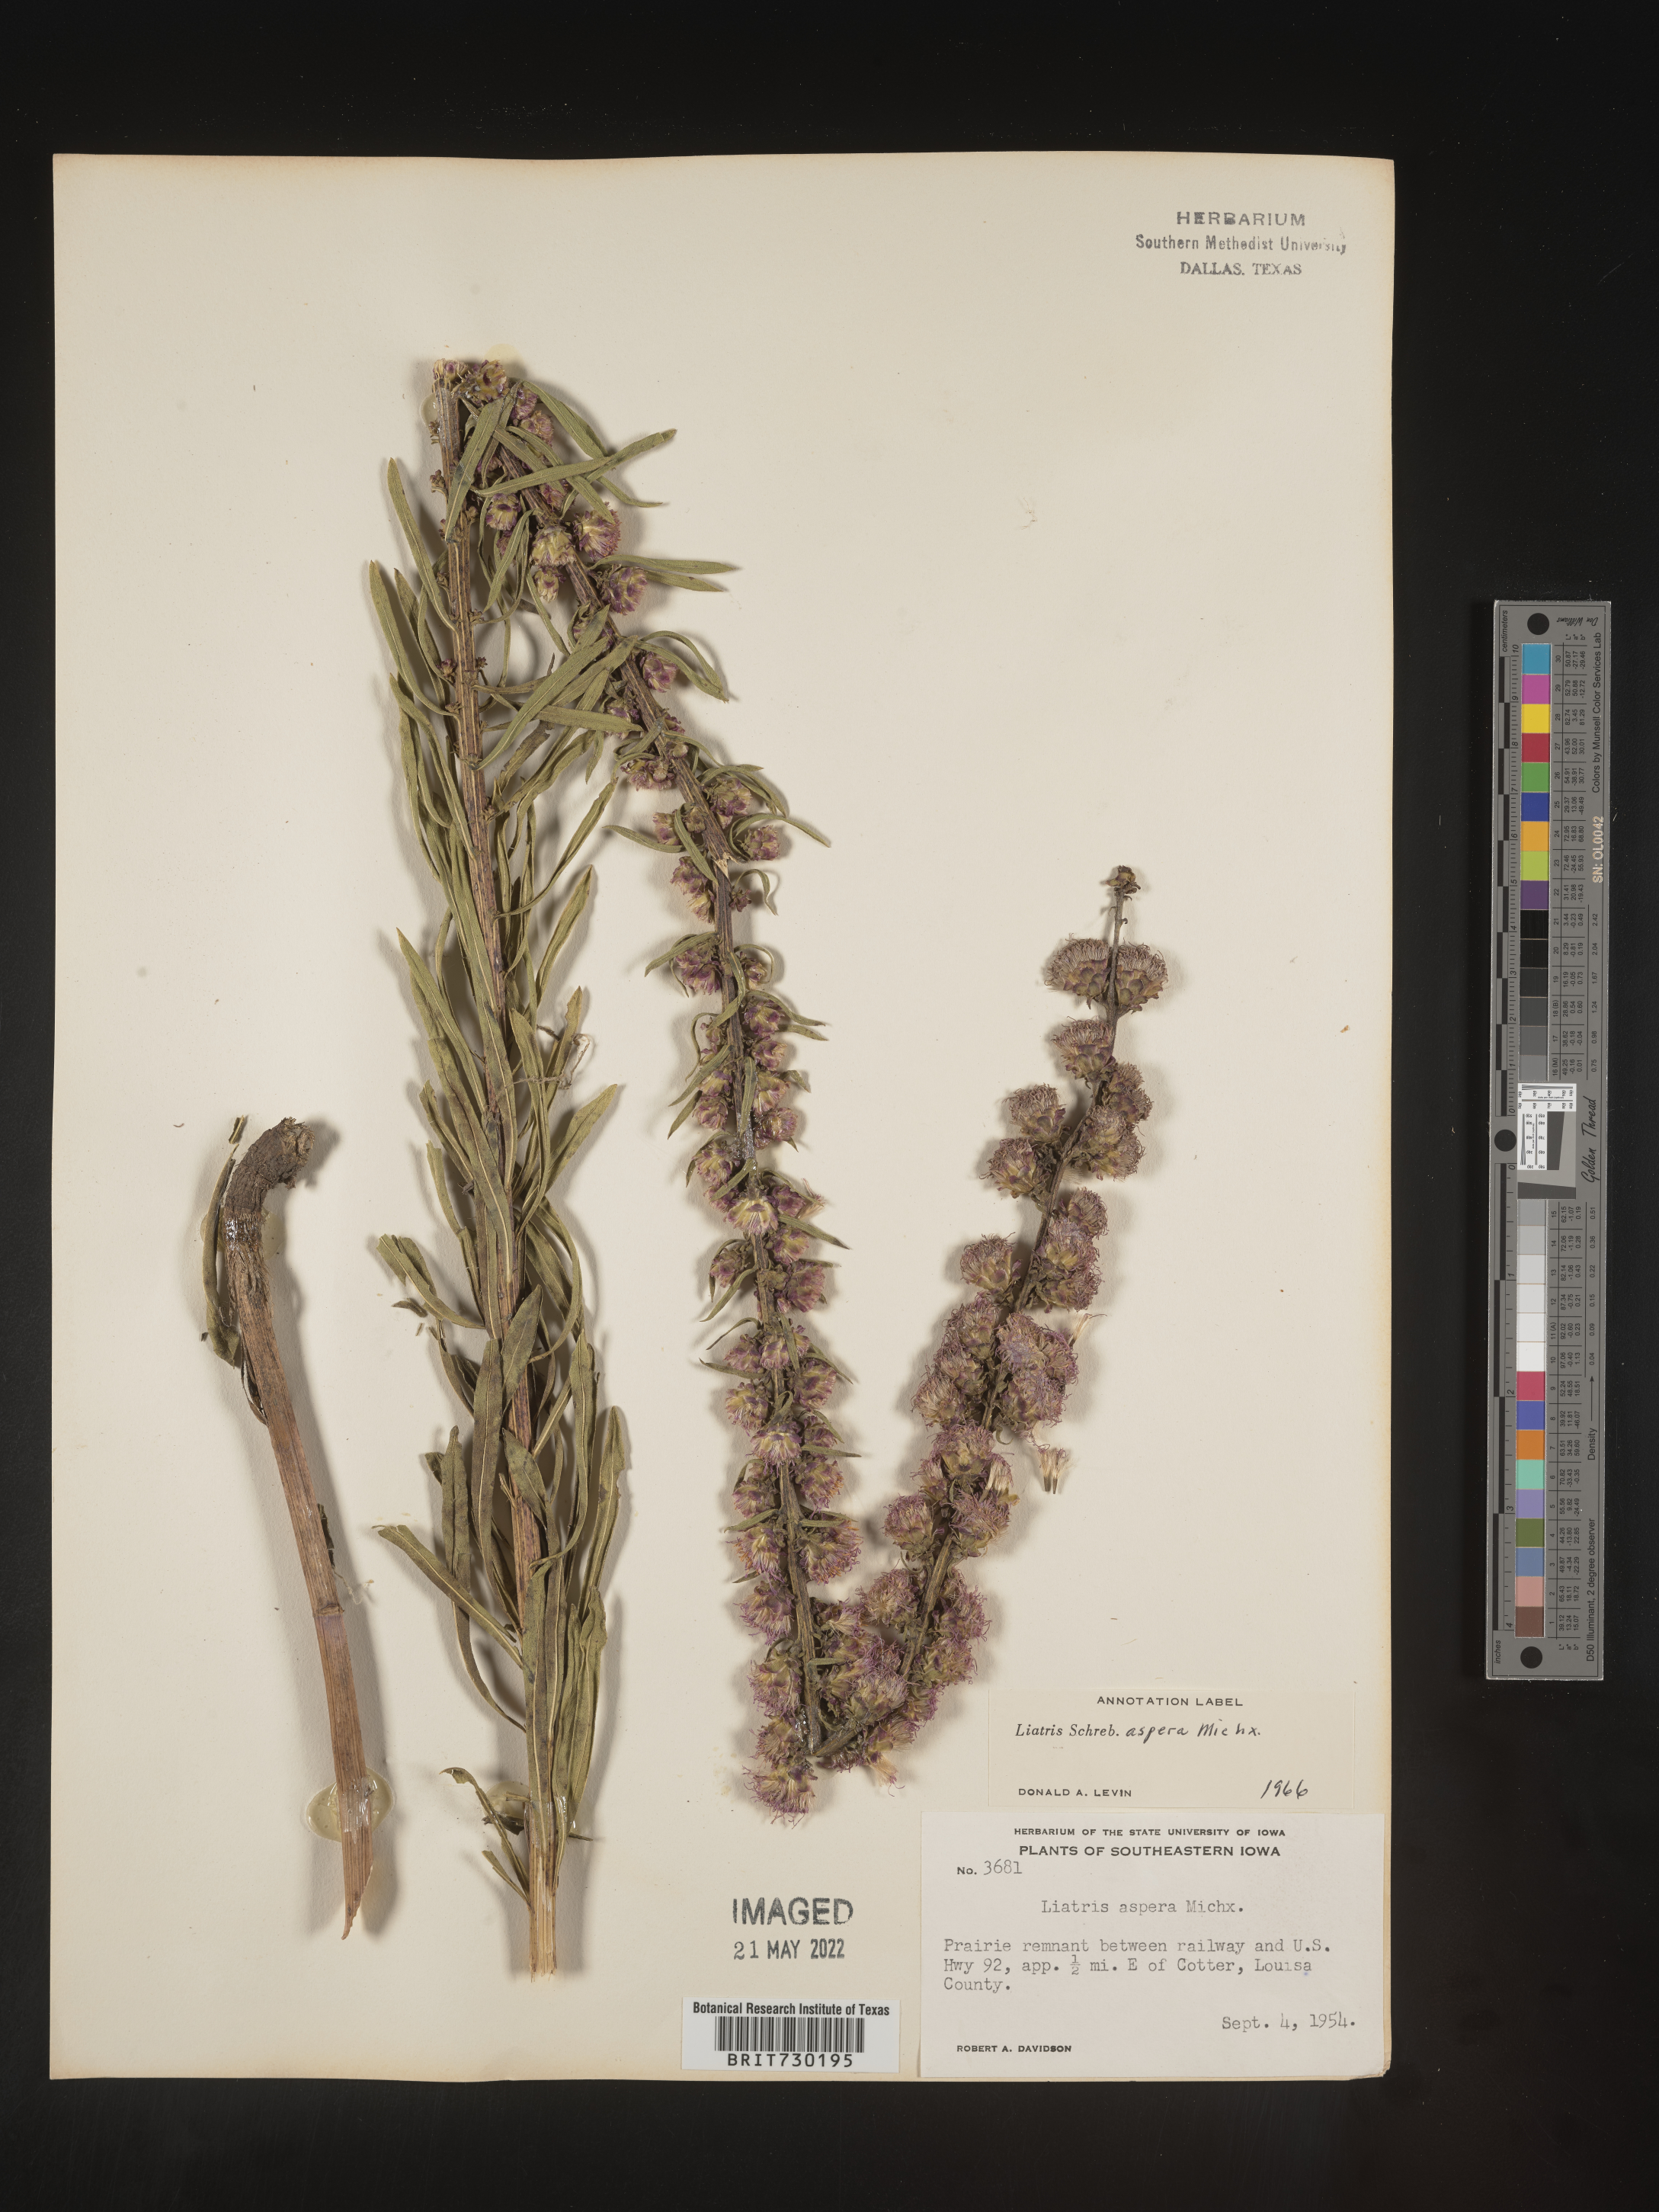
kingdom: Plantae
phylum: Tracheophyta
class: Magnoliopsida
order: Asterales
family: Asteraceae
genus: Liatris
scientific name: Liatris aspera
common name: Lacerate blazing-star
